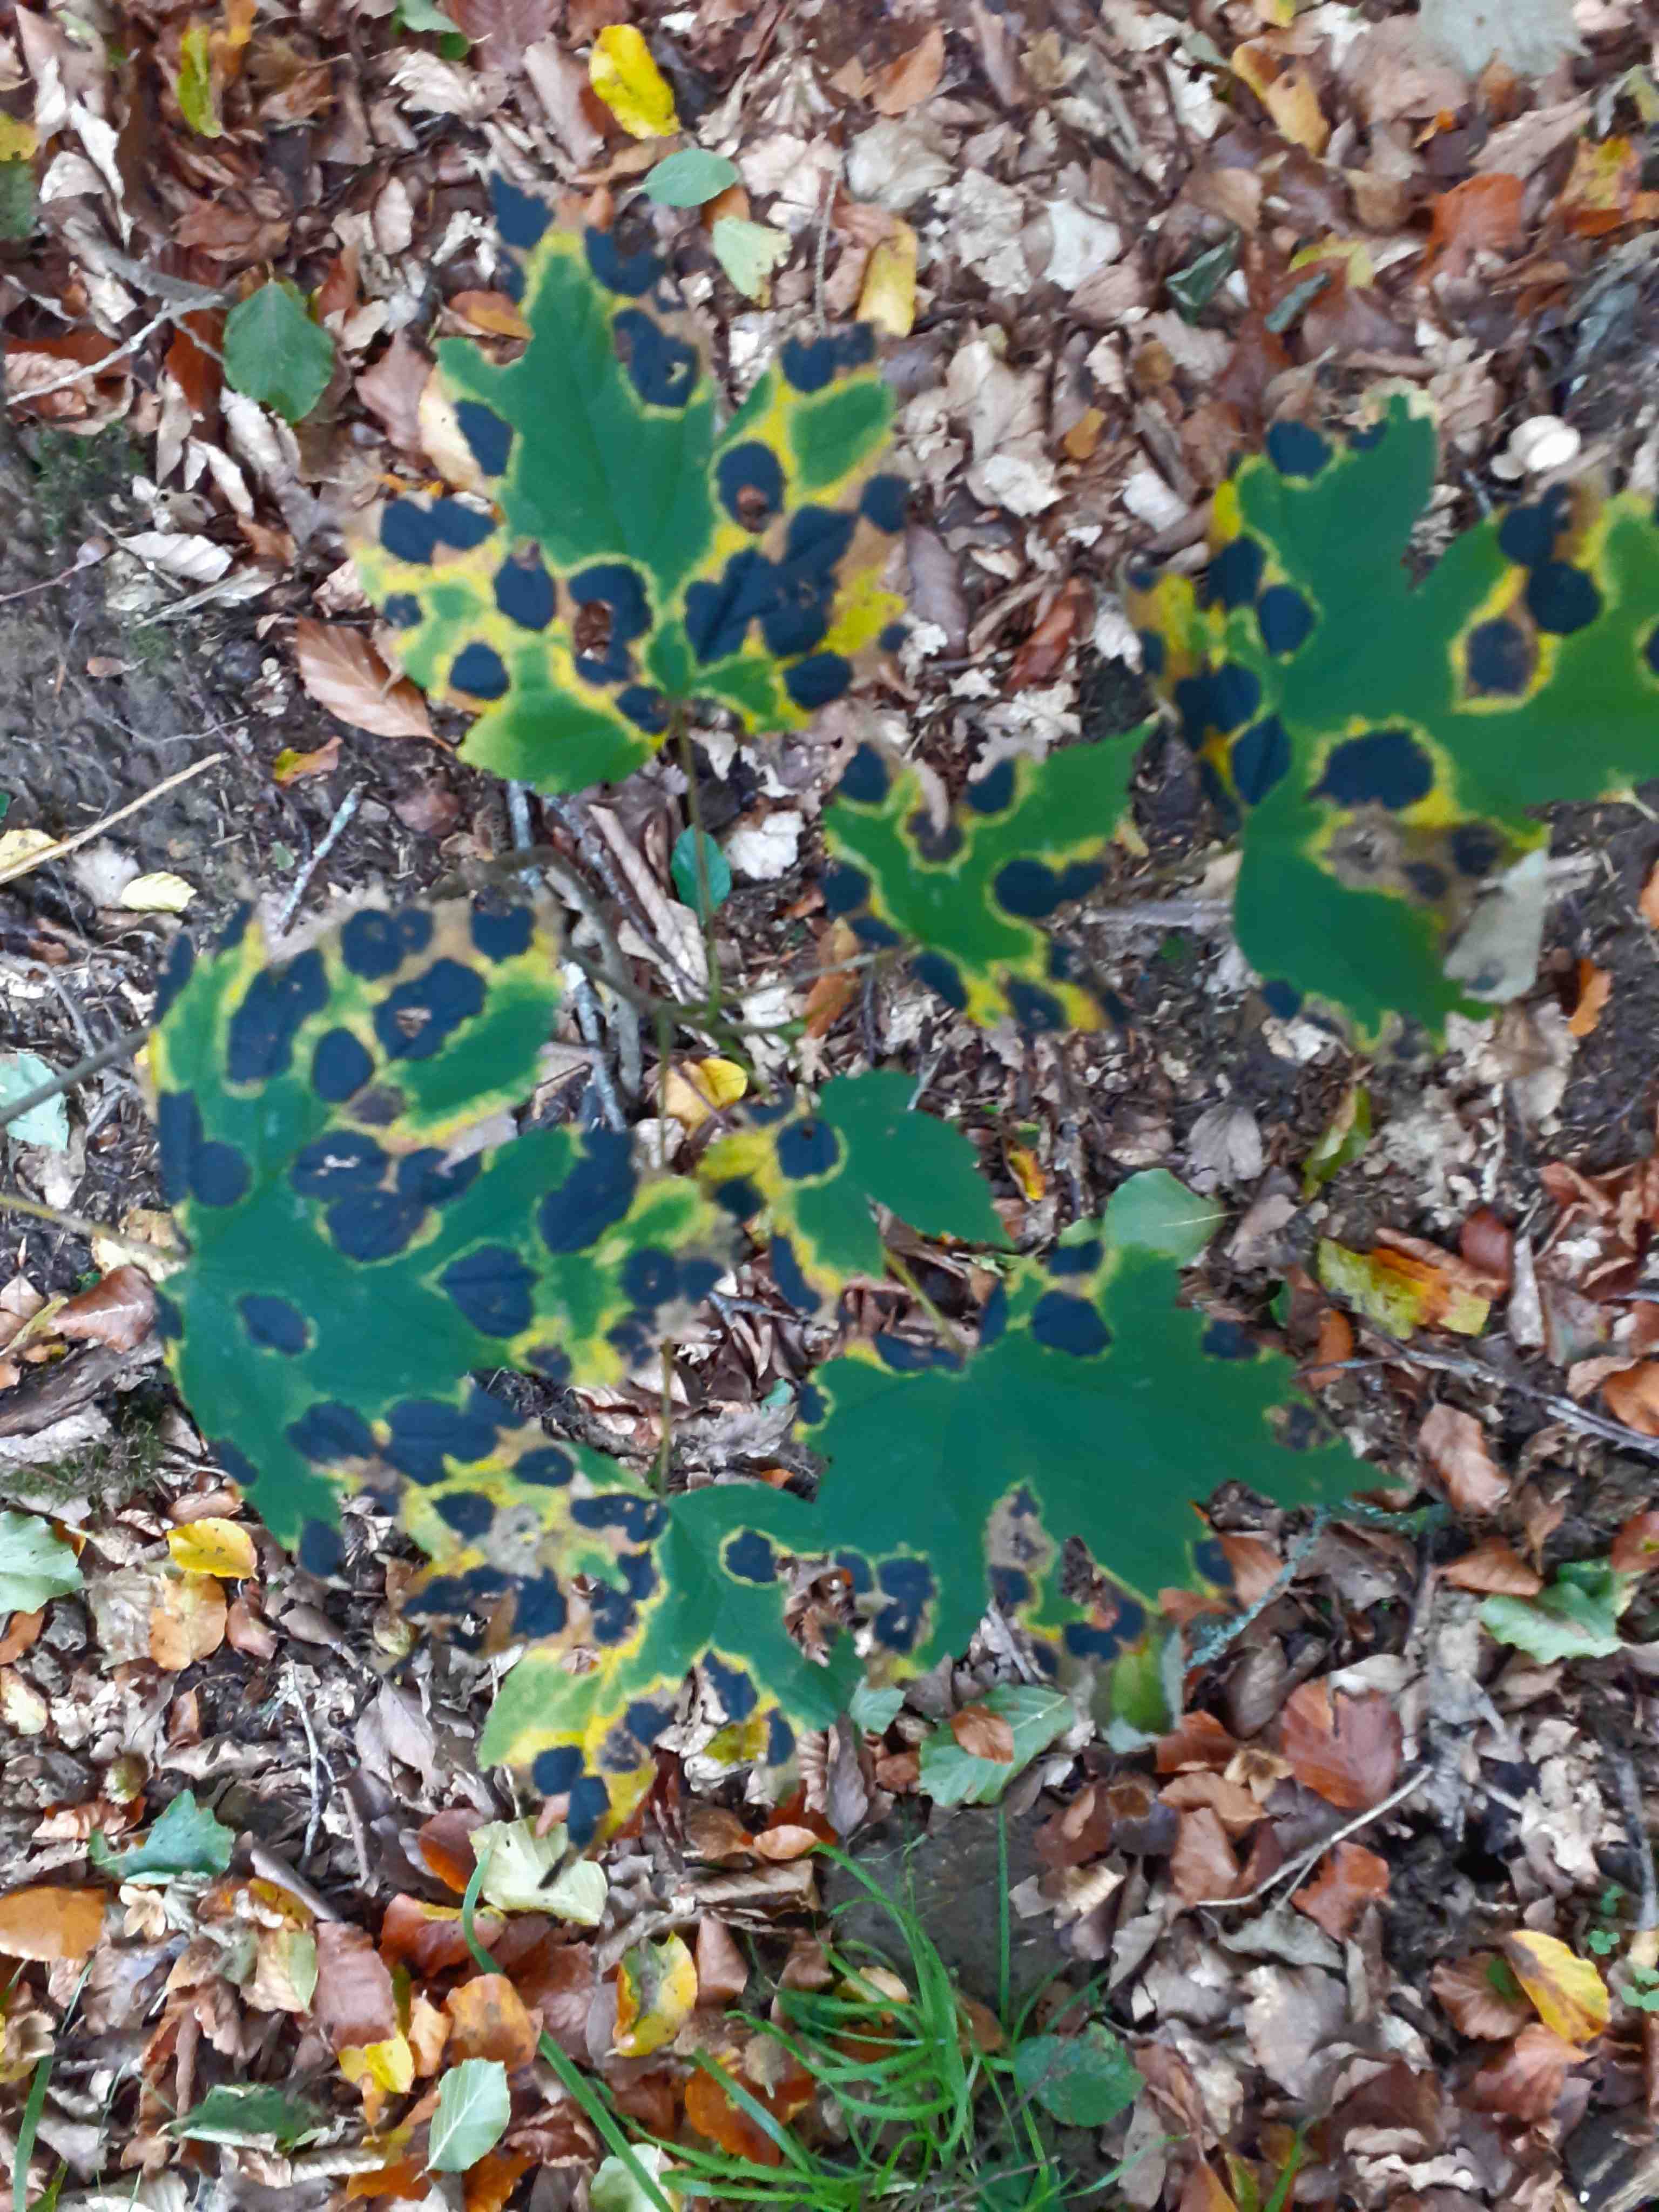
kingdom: Fungi
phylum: Ascomycota
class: Leotiomycetes
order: Rhytismatales
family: Rhytismataceae
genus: Rhytisma
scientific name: Rhytisma acerinum
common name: ahorn-rynkeplet
